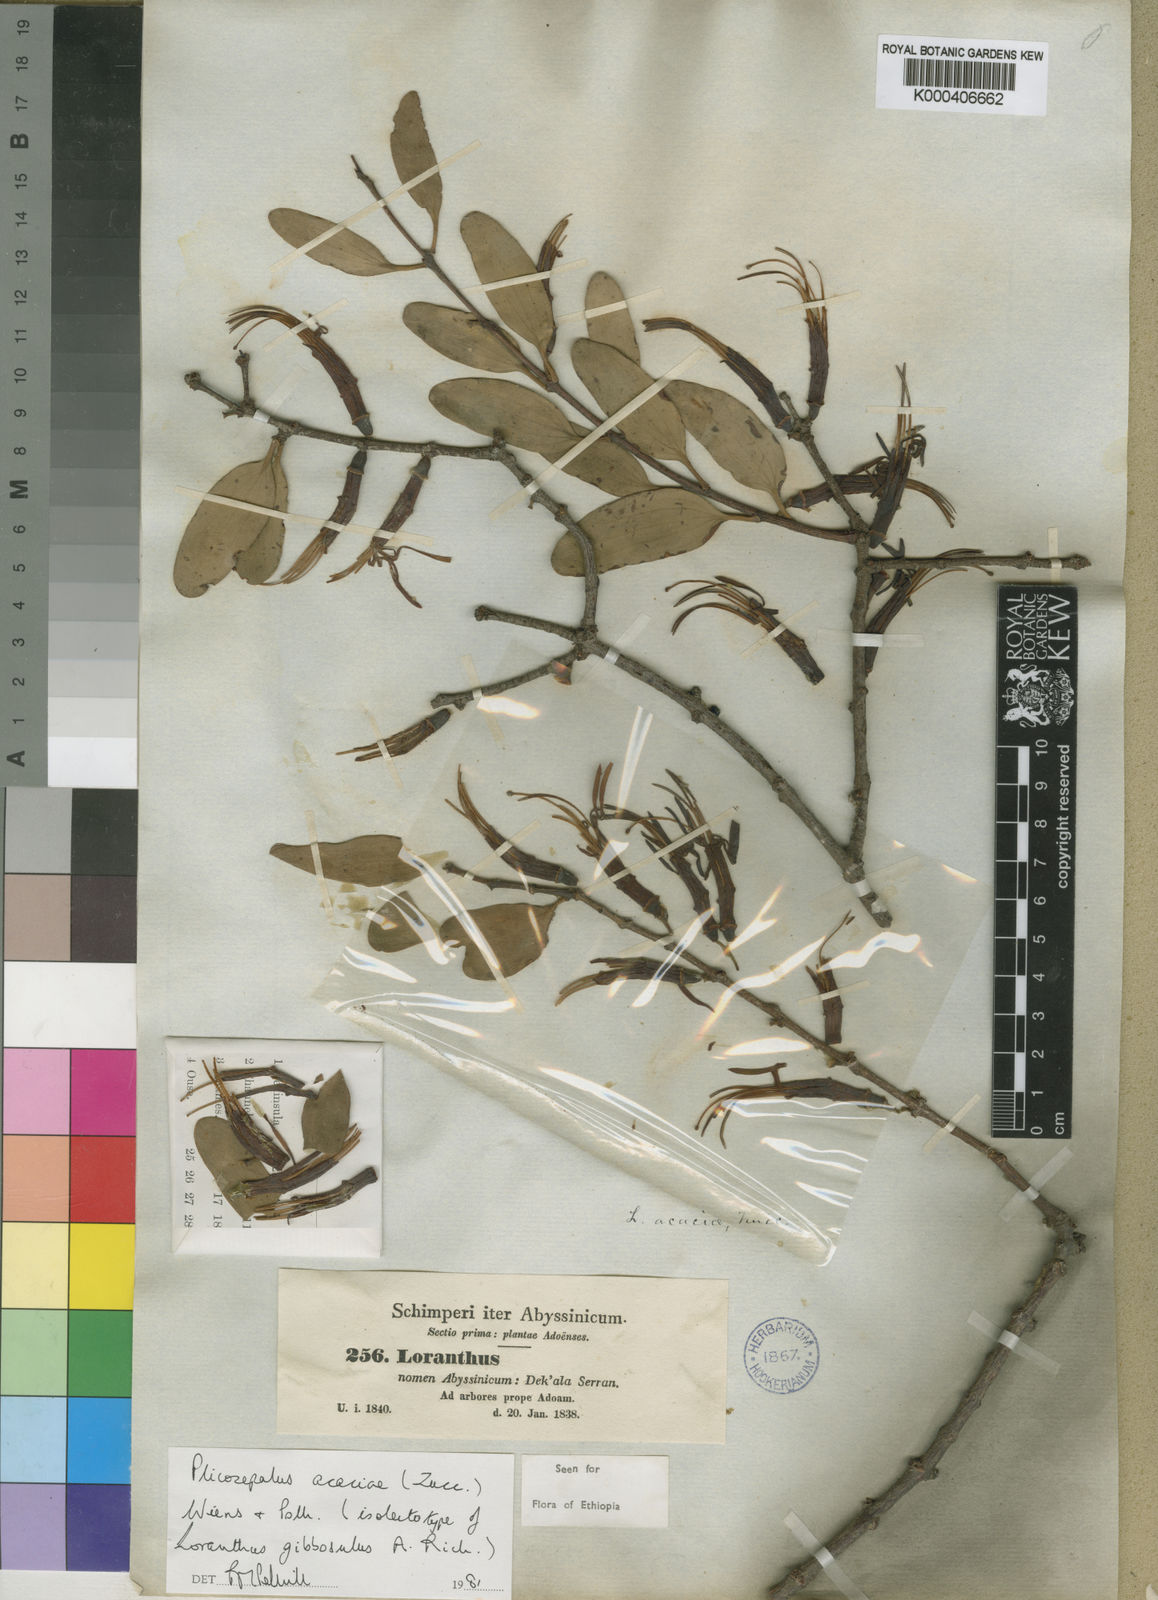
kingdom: Plantae
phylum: Tracheophyta
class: Magnoliopsida
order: Santalales
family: Loranthaceae
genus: Plicosepalus
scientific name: Plicosepalus acaciae
